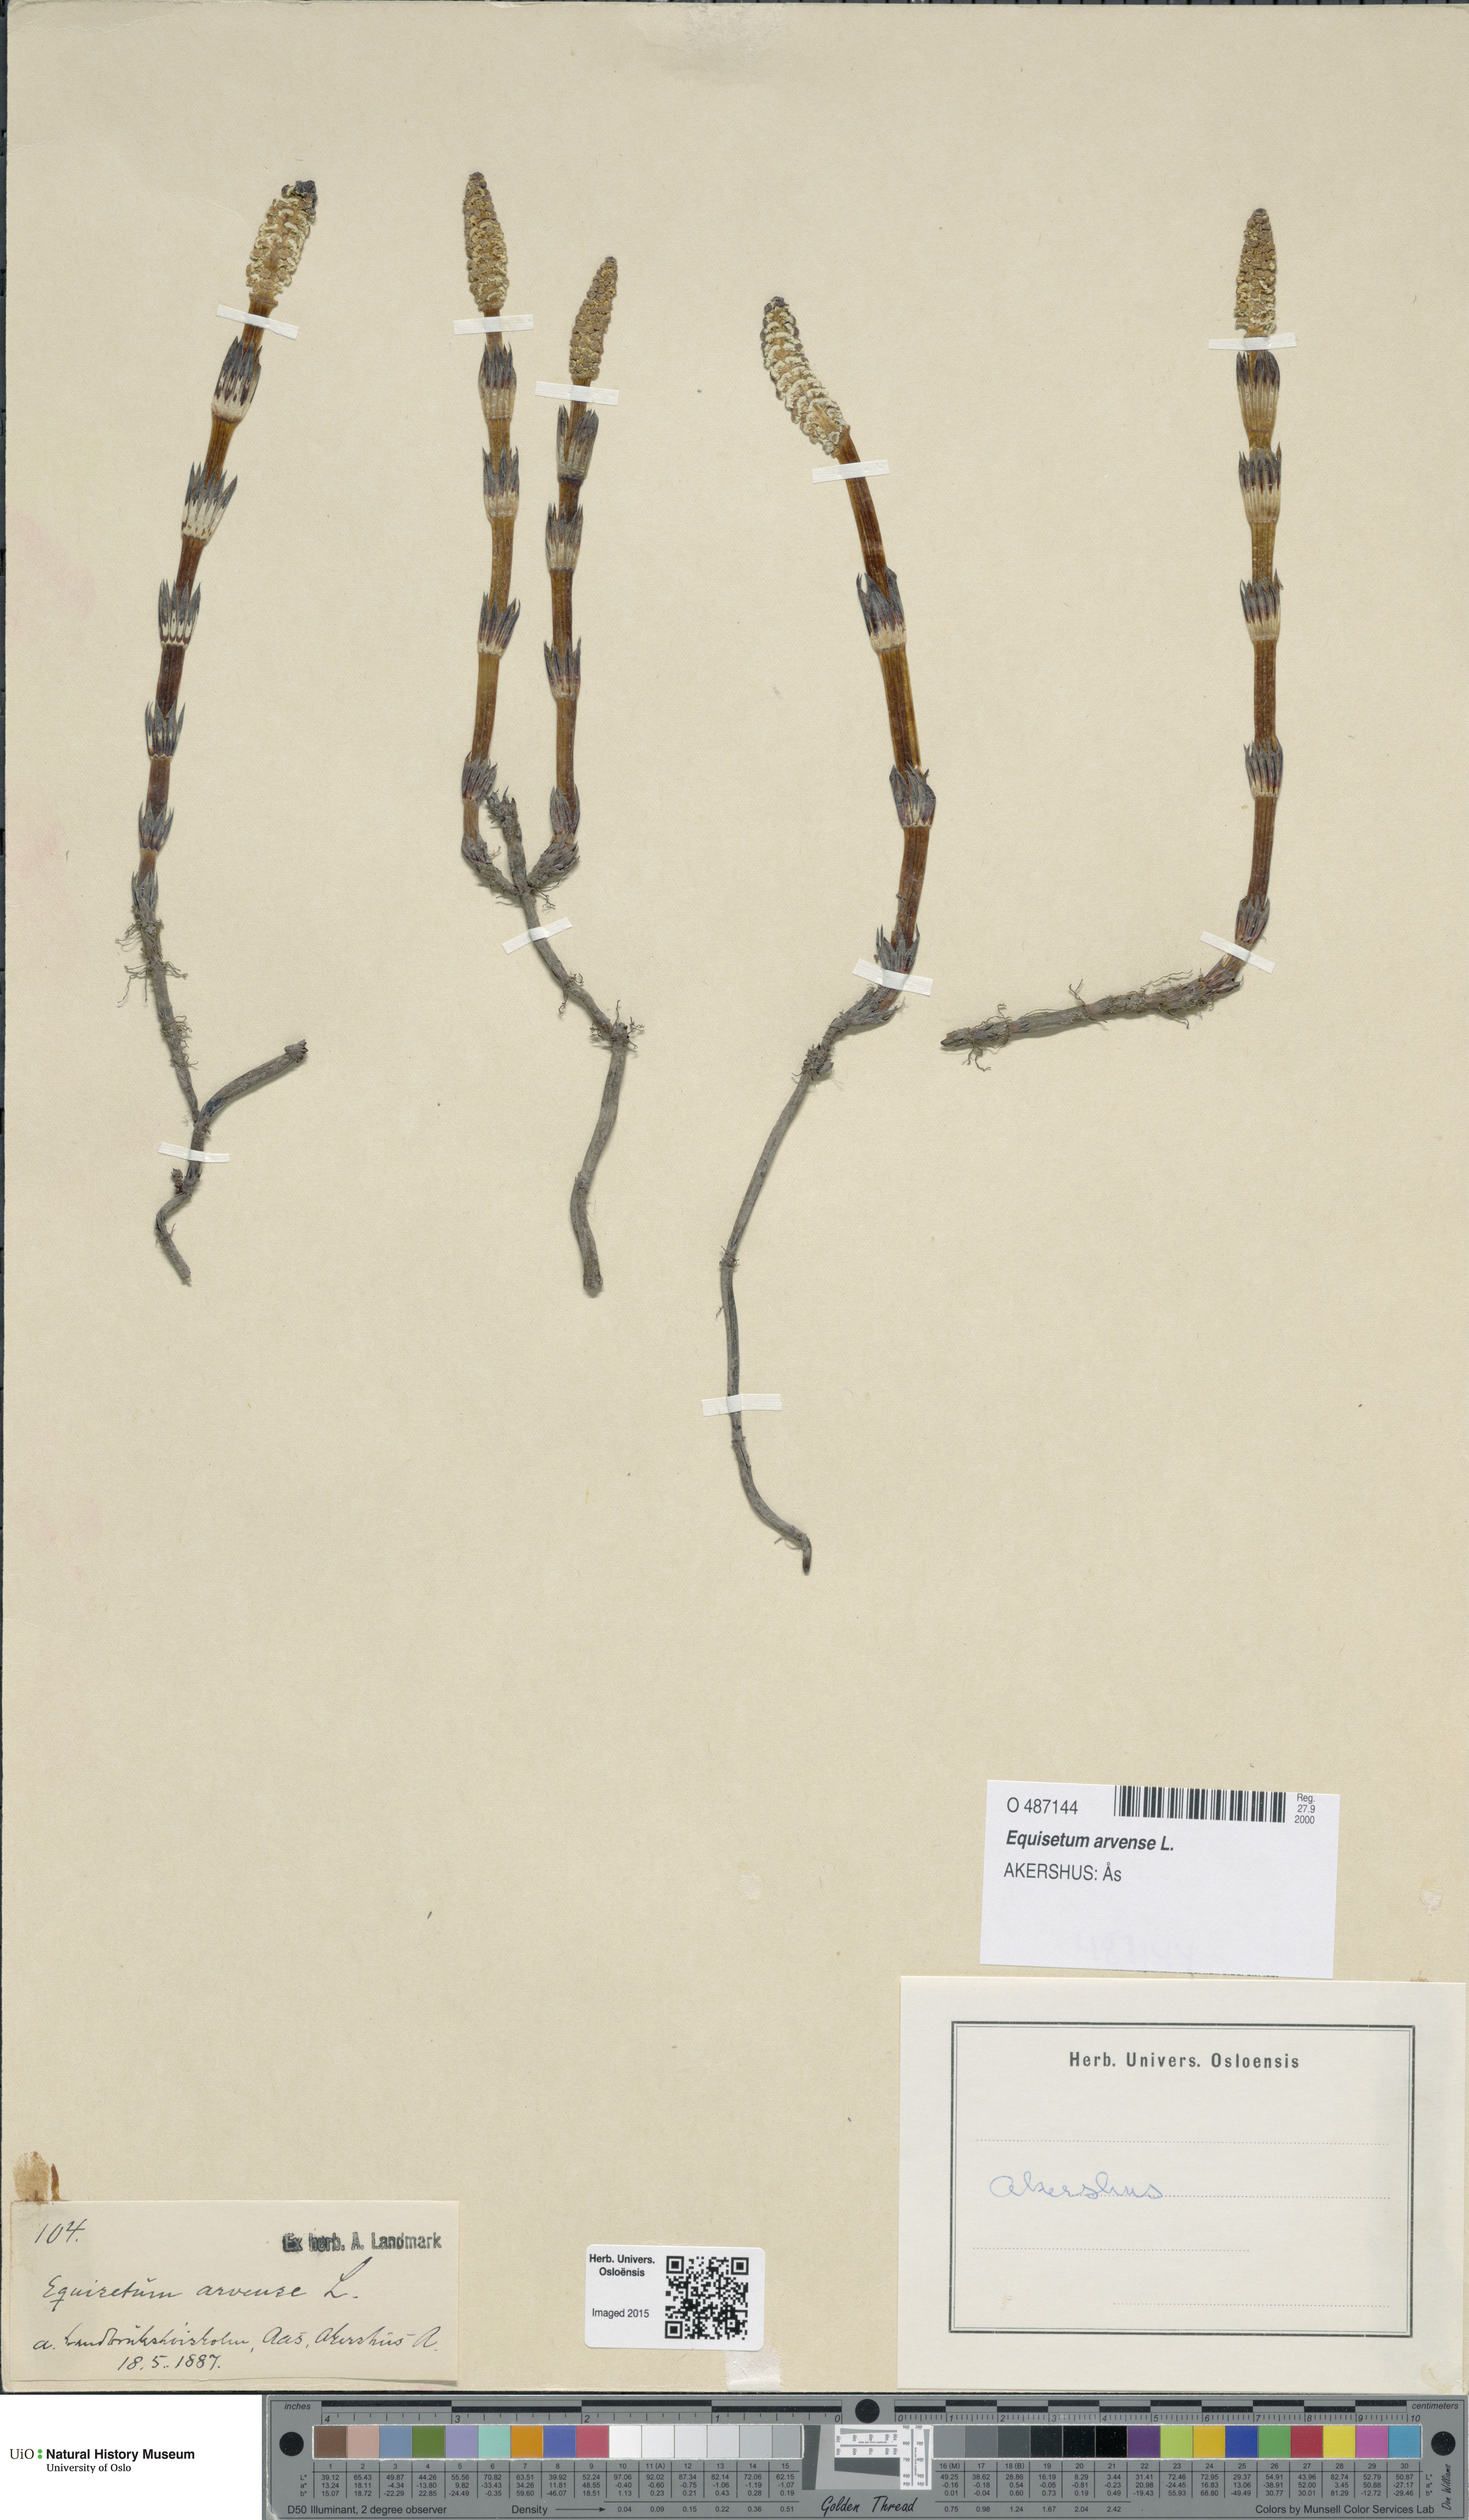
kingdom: Plantae
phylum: Tracheophyta
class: Polypodiopsida
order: Equisetales
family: Equisetaceae
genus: Equisetum
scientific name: Equisetum arvense
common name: Field horsetail
